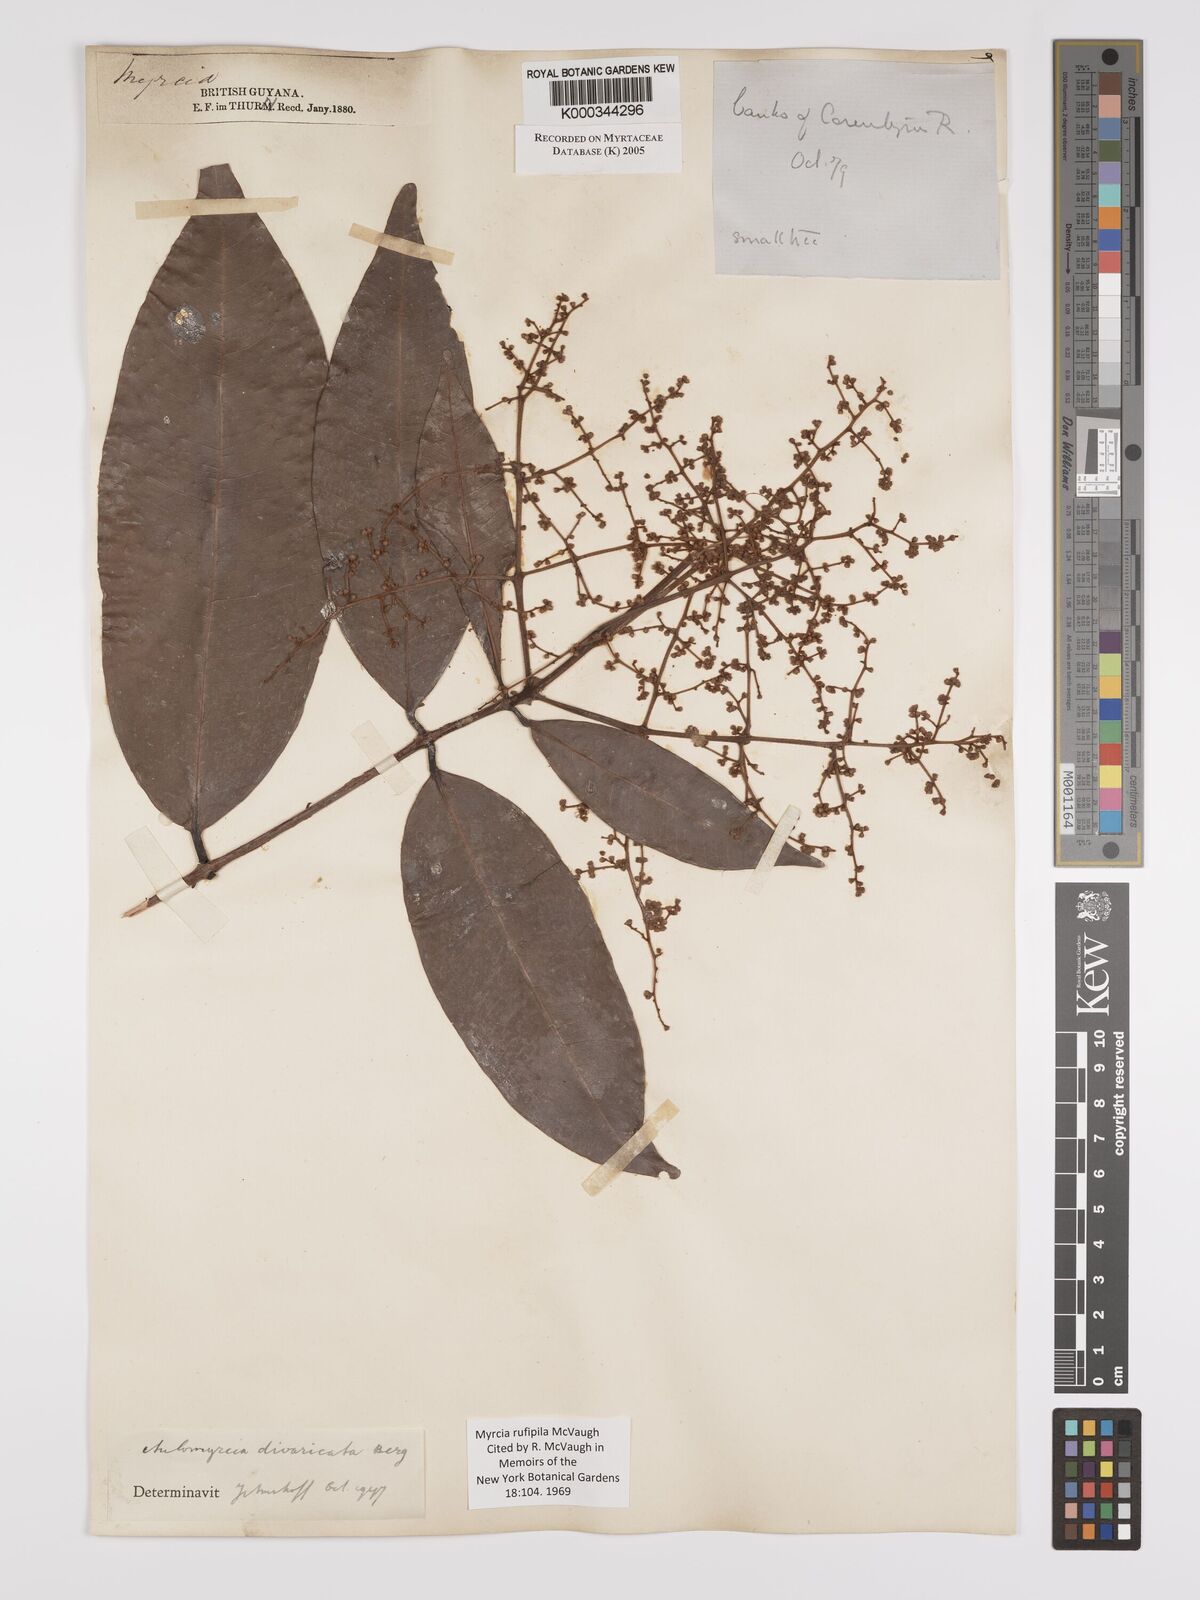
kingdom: Plantae
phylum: Tracheophyta
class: Magnoliopsida
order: Myrtales
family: Myrtaceae
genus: Myrcia
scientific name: Myrcia rufipila
